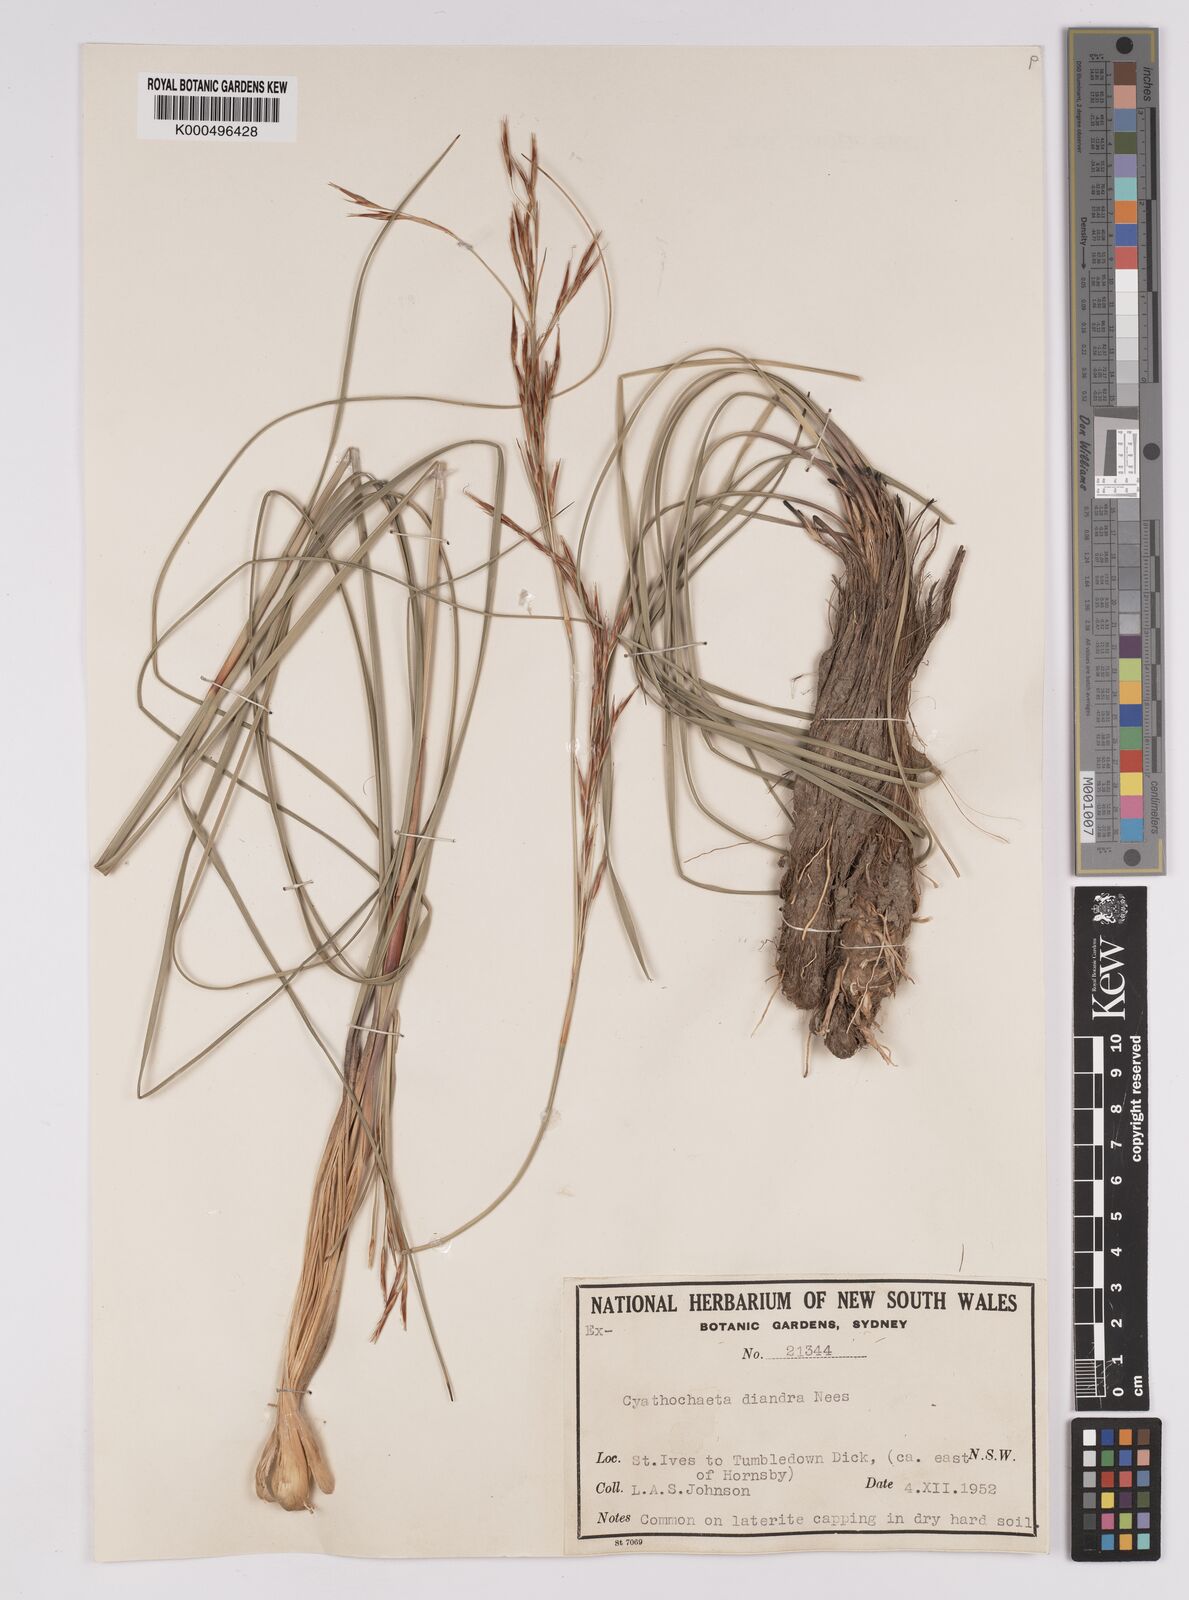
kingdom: Plantae
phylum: Tracheophyta
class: Liliopsida
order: Poales
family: Cyperaceae
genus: Cyathochaeta
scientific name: Cyathochaeta diandra
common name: Sheath rush
